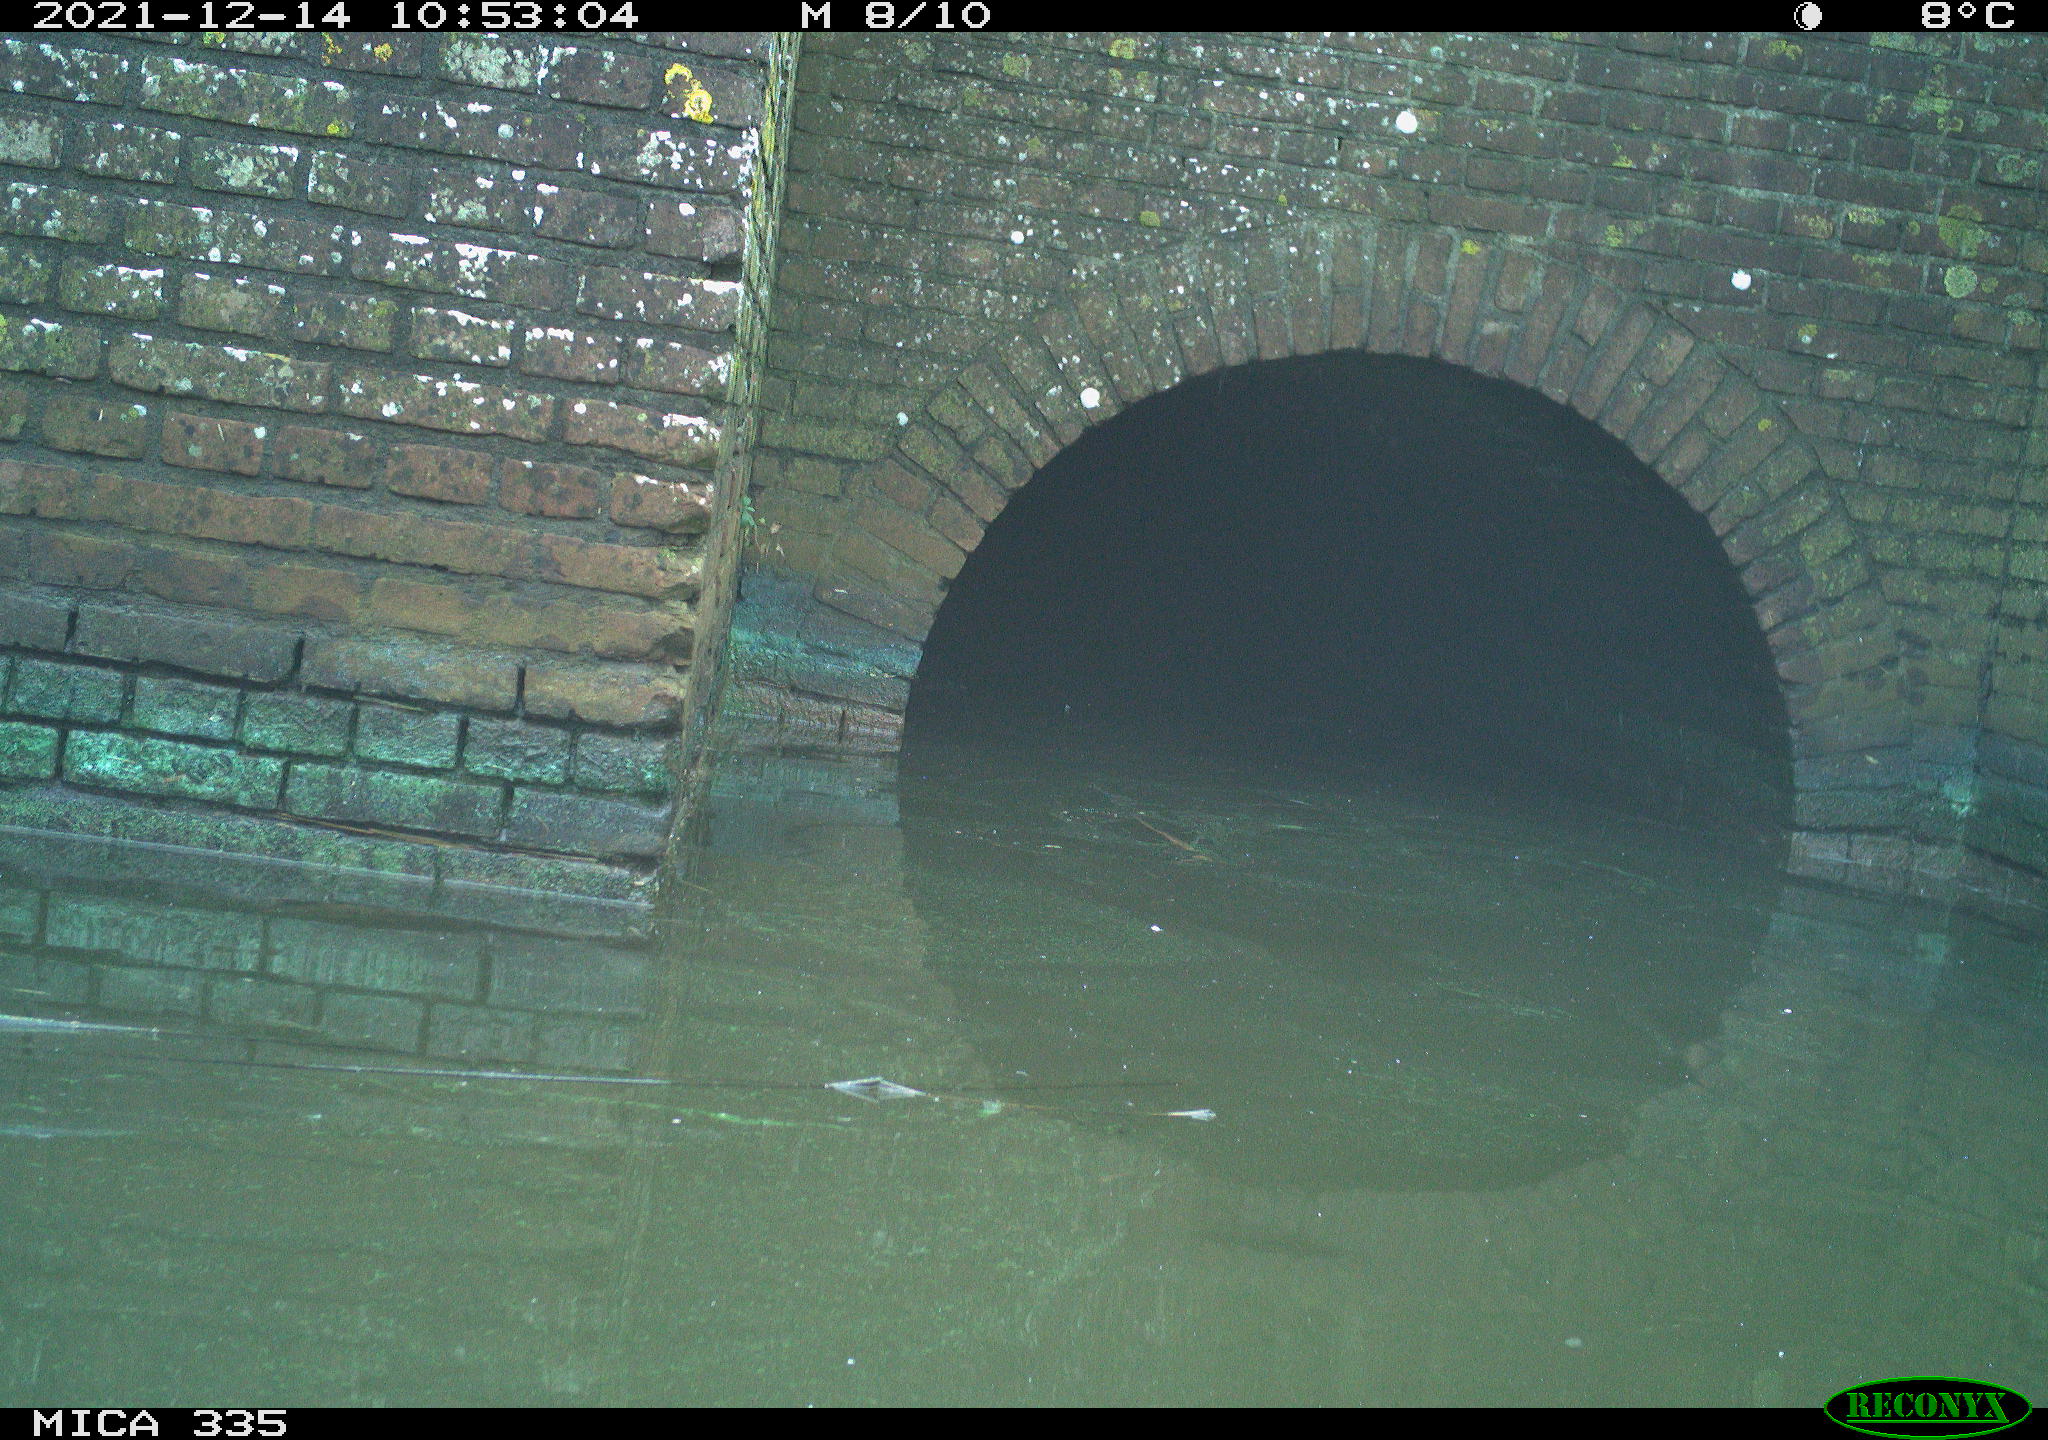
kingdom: Animalia
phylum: Chordata
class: Aves
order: Anseriformes
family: Anatidae
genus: Anas
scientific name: Anas platyrhynchos
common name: Mallard
